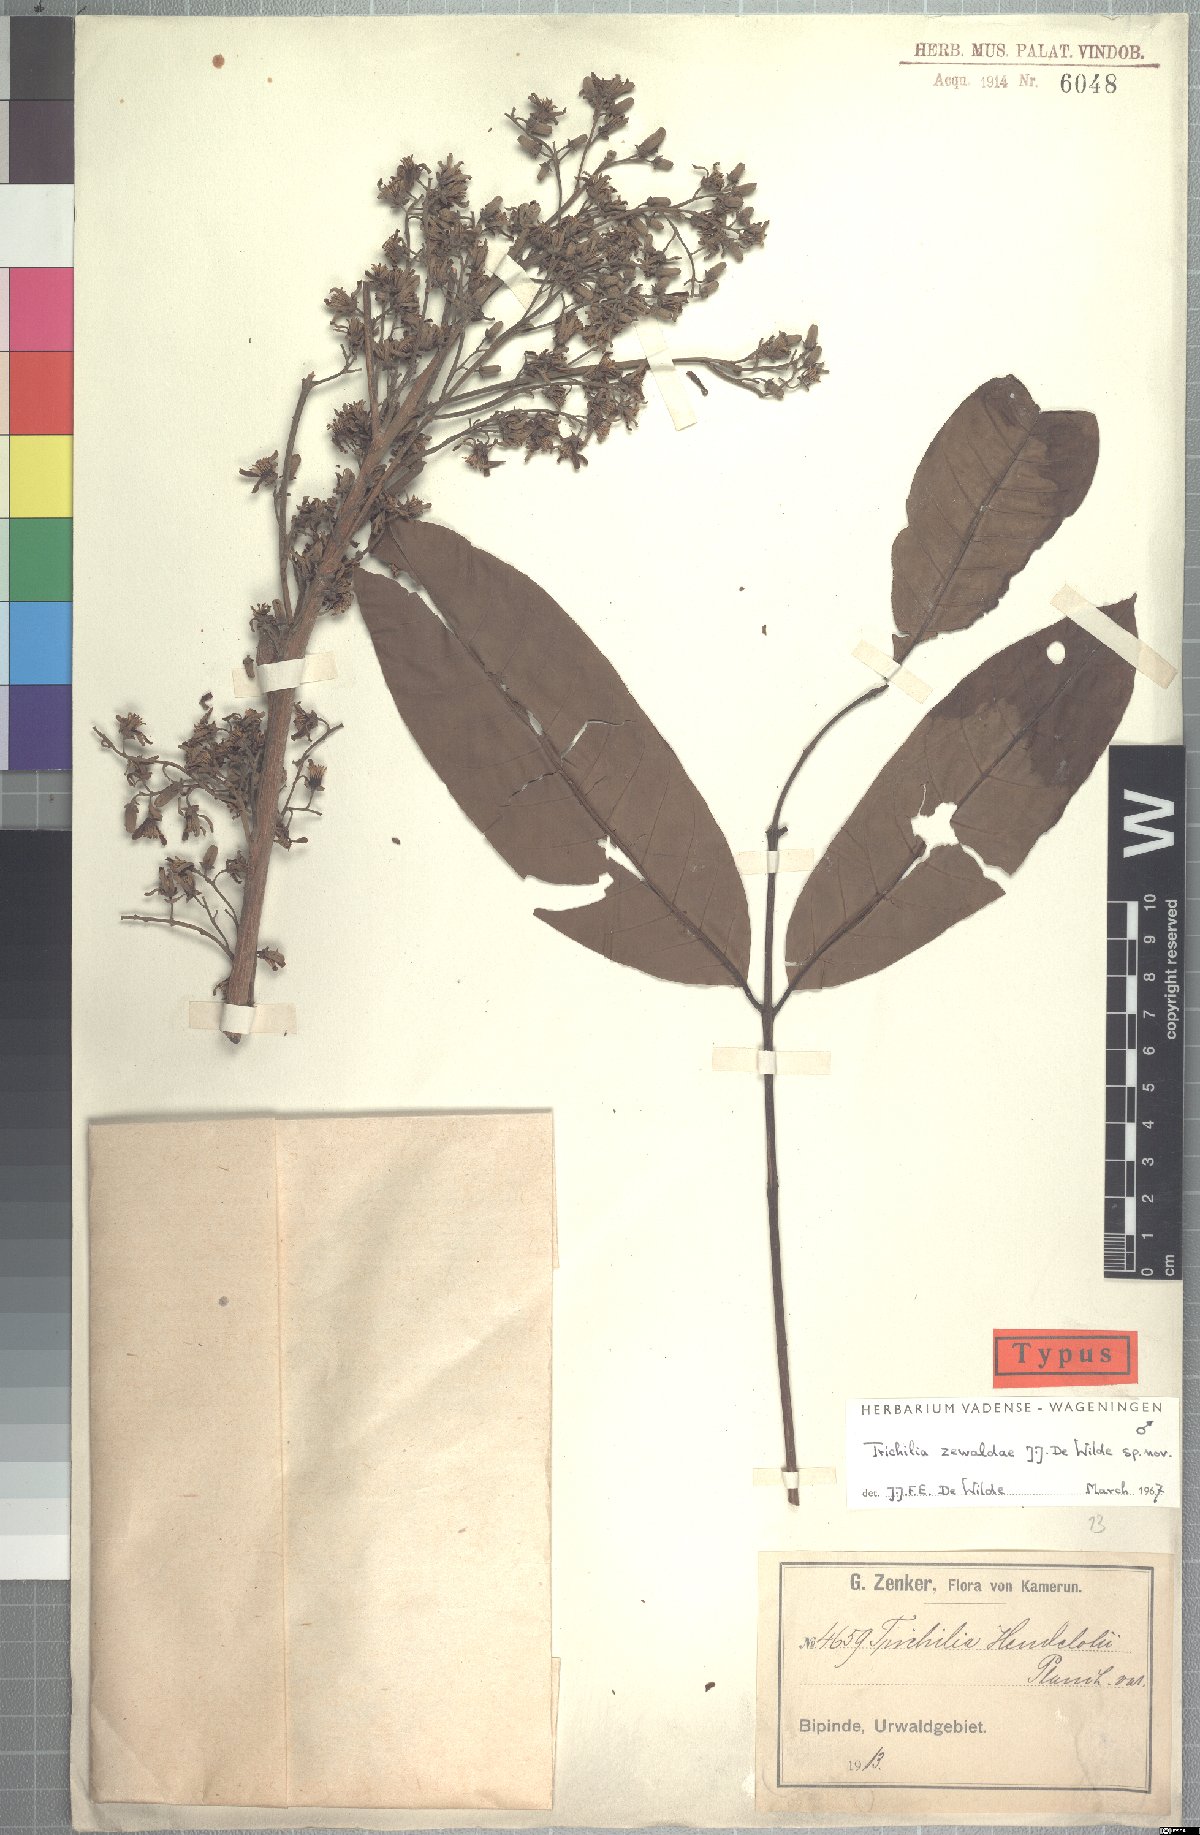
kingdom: Plantae
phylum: Tracheophyta
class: Magnoliopsida
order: Sapindales
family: Meliaceae
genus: Trichilia
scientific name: Trichilia zewaldae
